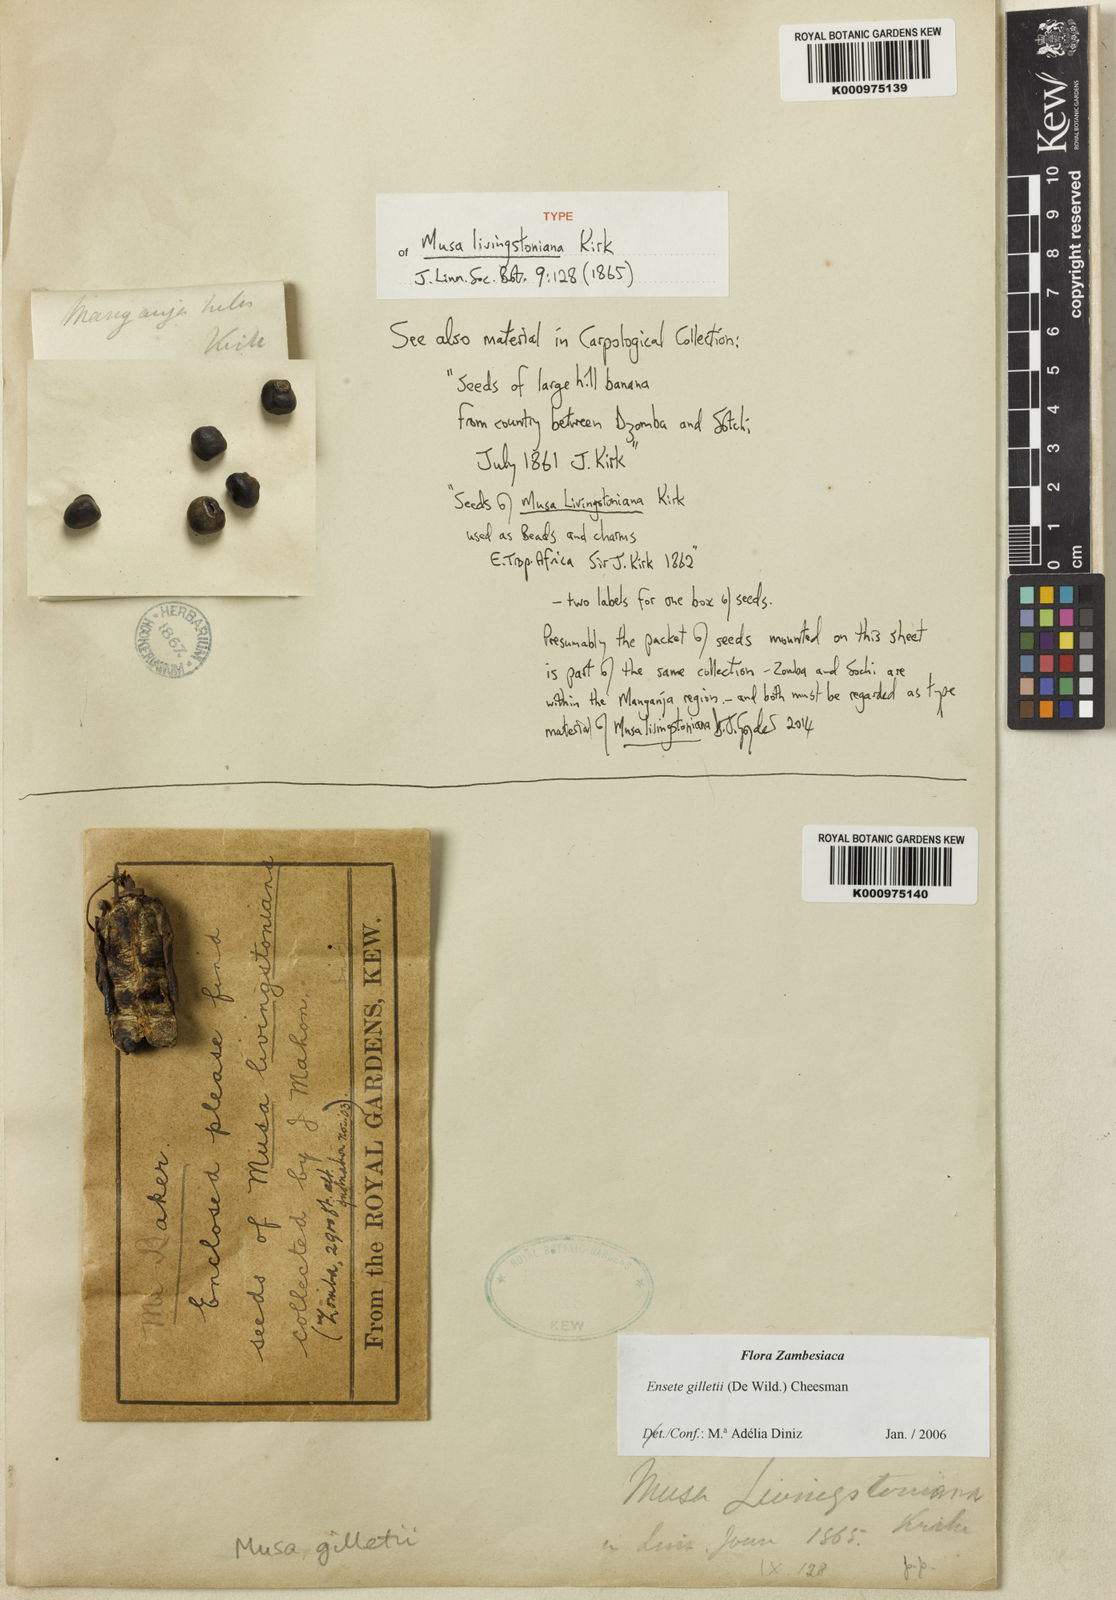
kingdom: Plantae
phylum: Tracheophyta
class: Liliopsida
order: Zingiberales
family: Musaceae
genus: Ensete
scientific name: Ensete livingstonianum
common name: Livingston's banana
